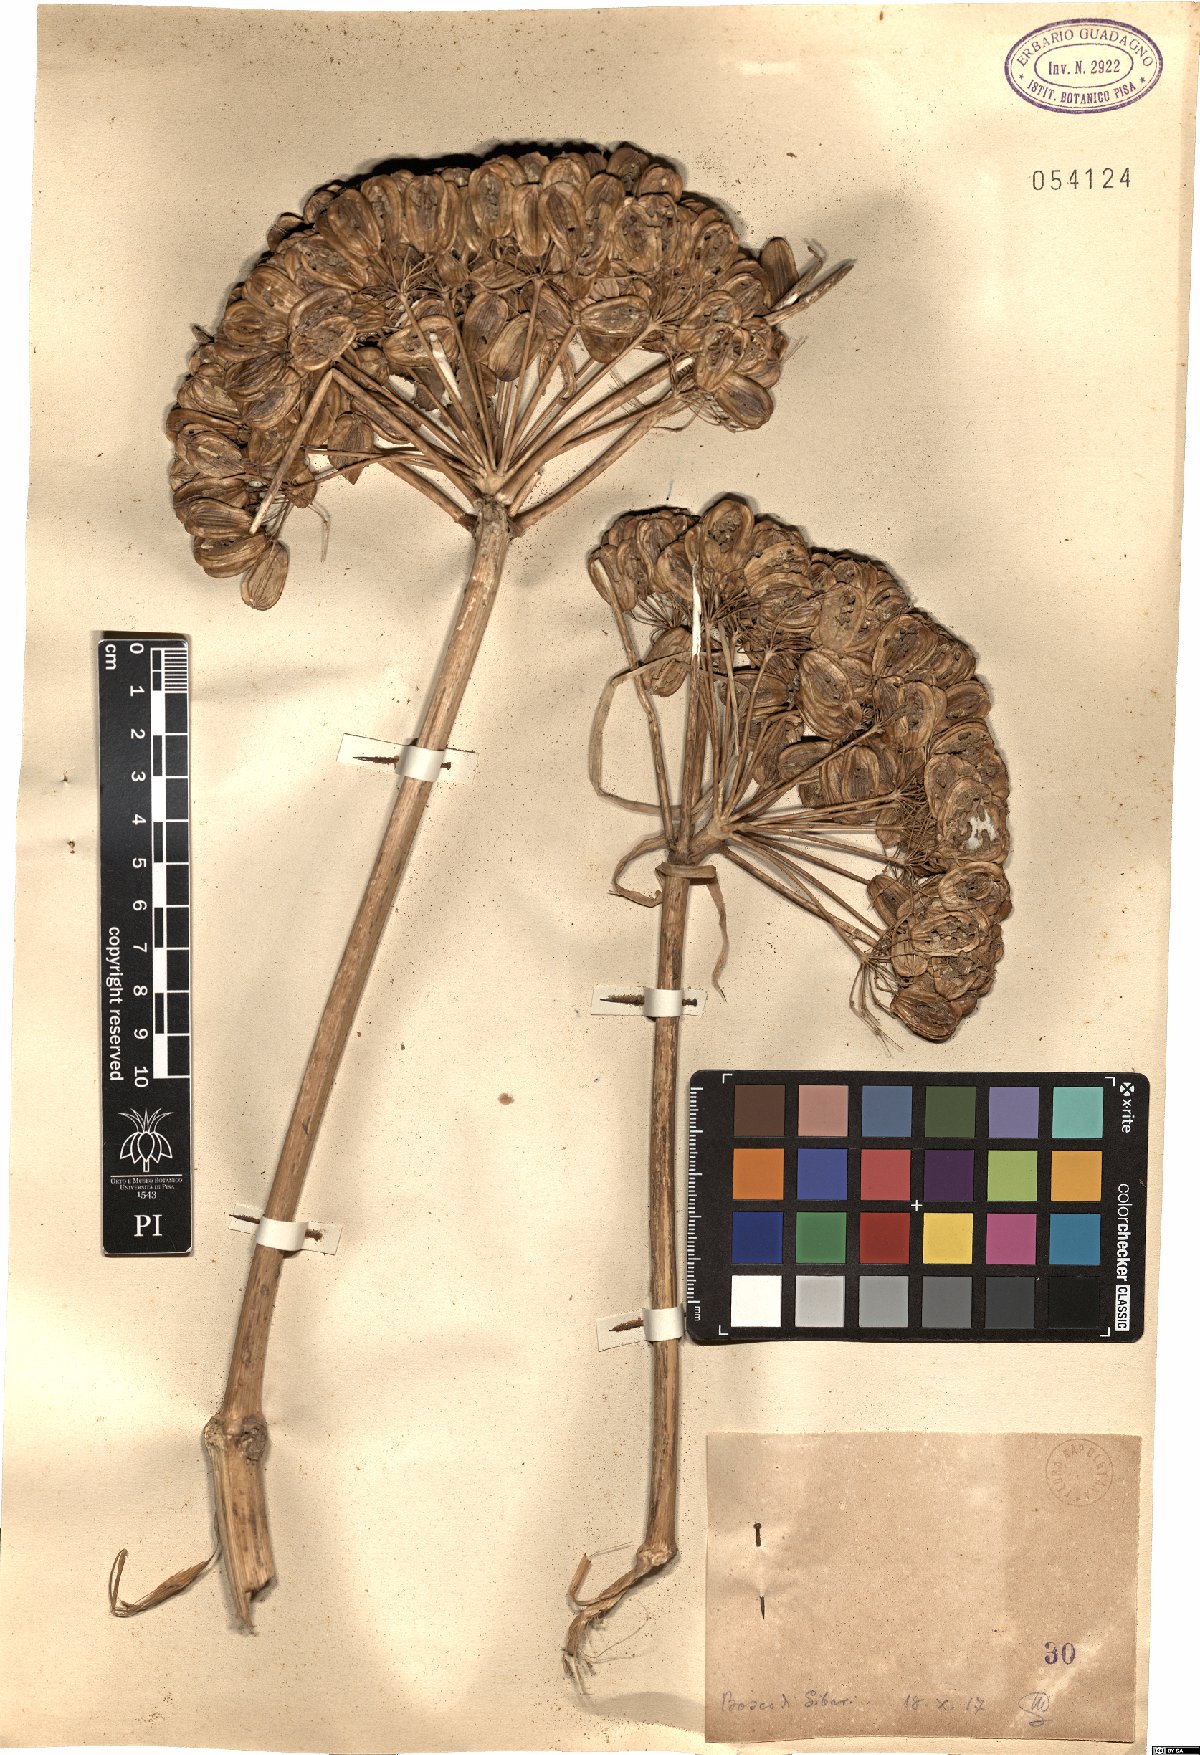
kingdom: Plantae
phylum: Tracheophyta
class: Magnoliopsida
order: Apiales
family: Apiaceae
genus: Ferula
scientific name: Ferula
